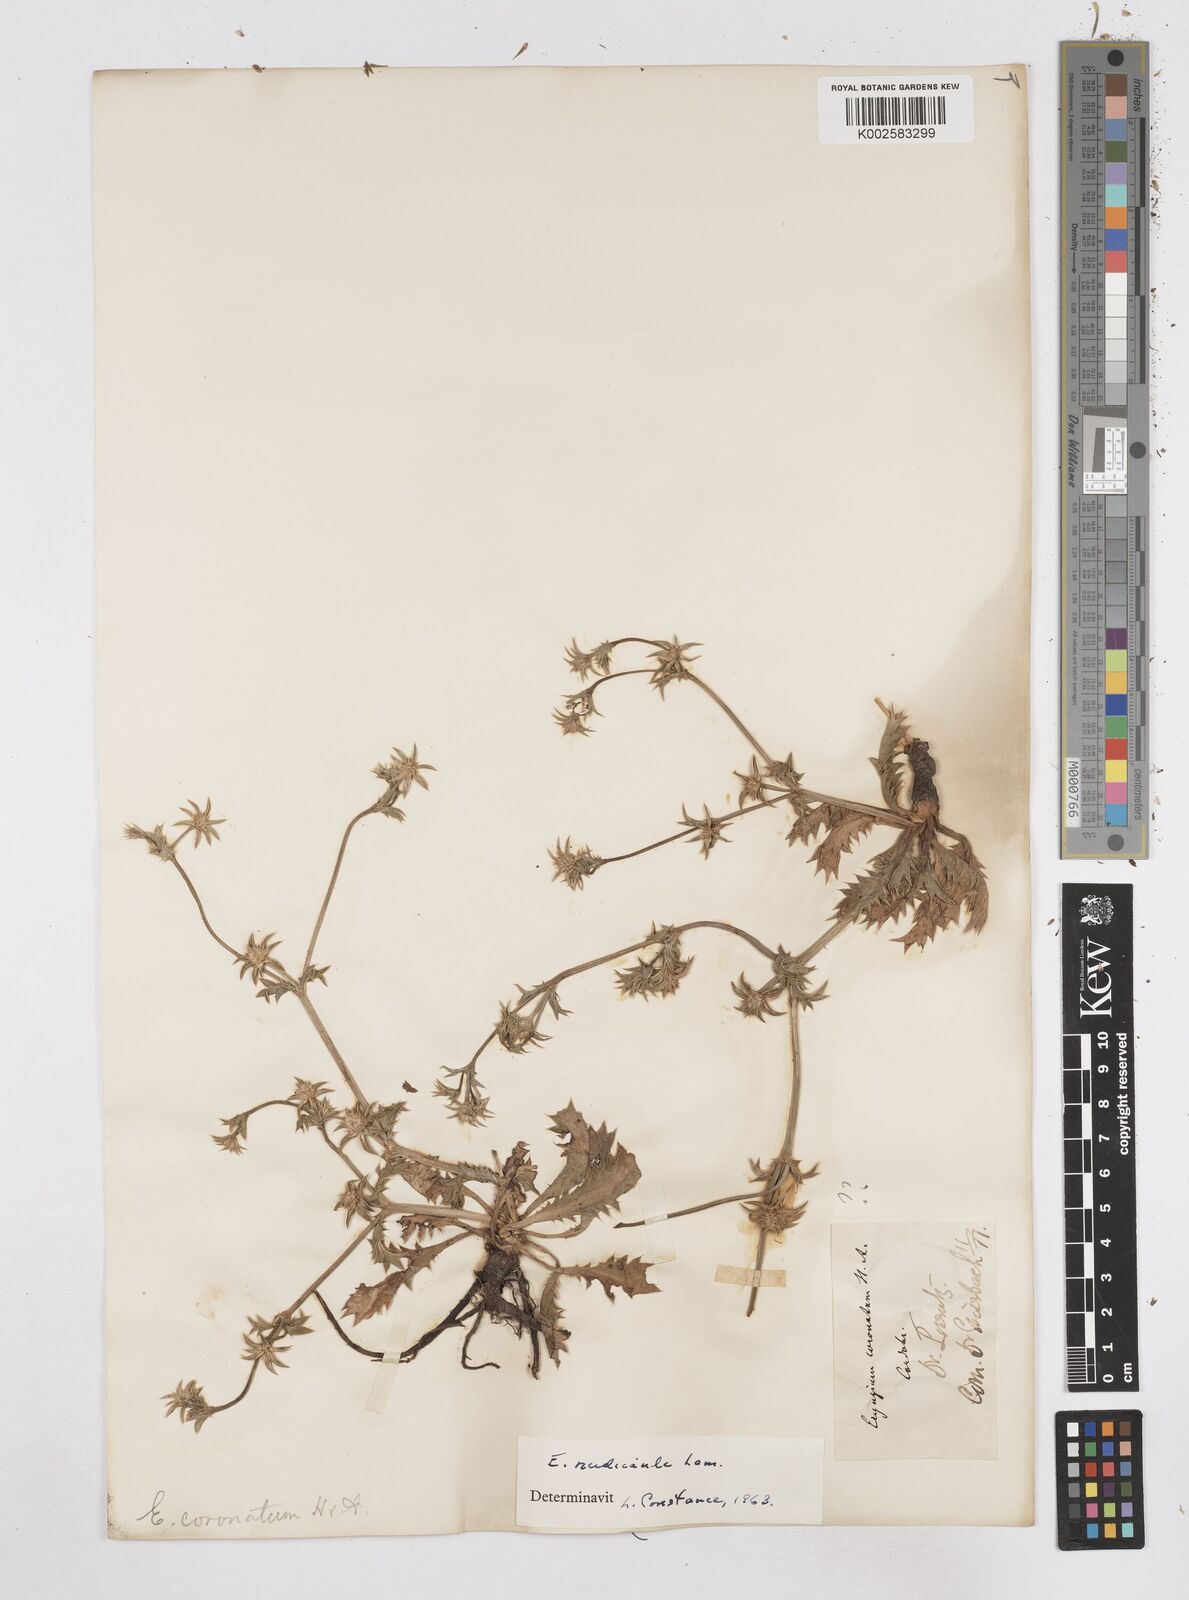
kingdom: Plantae
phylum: Tracheophyta
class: Magnoliopsida
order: Apiales
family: Apiaceae
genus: Eryngium
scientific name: Eryngium nudicaule
